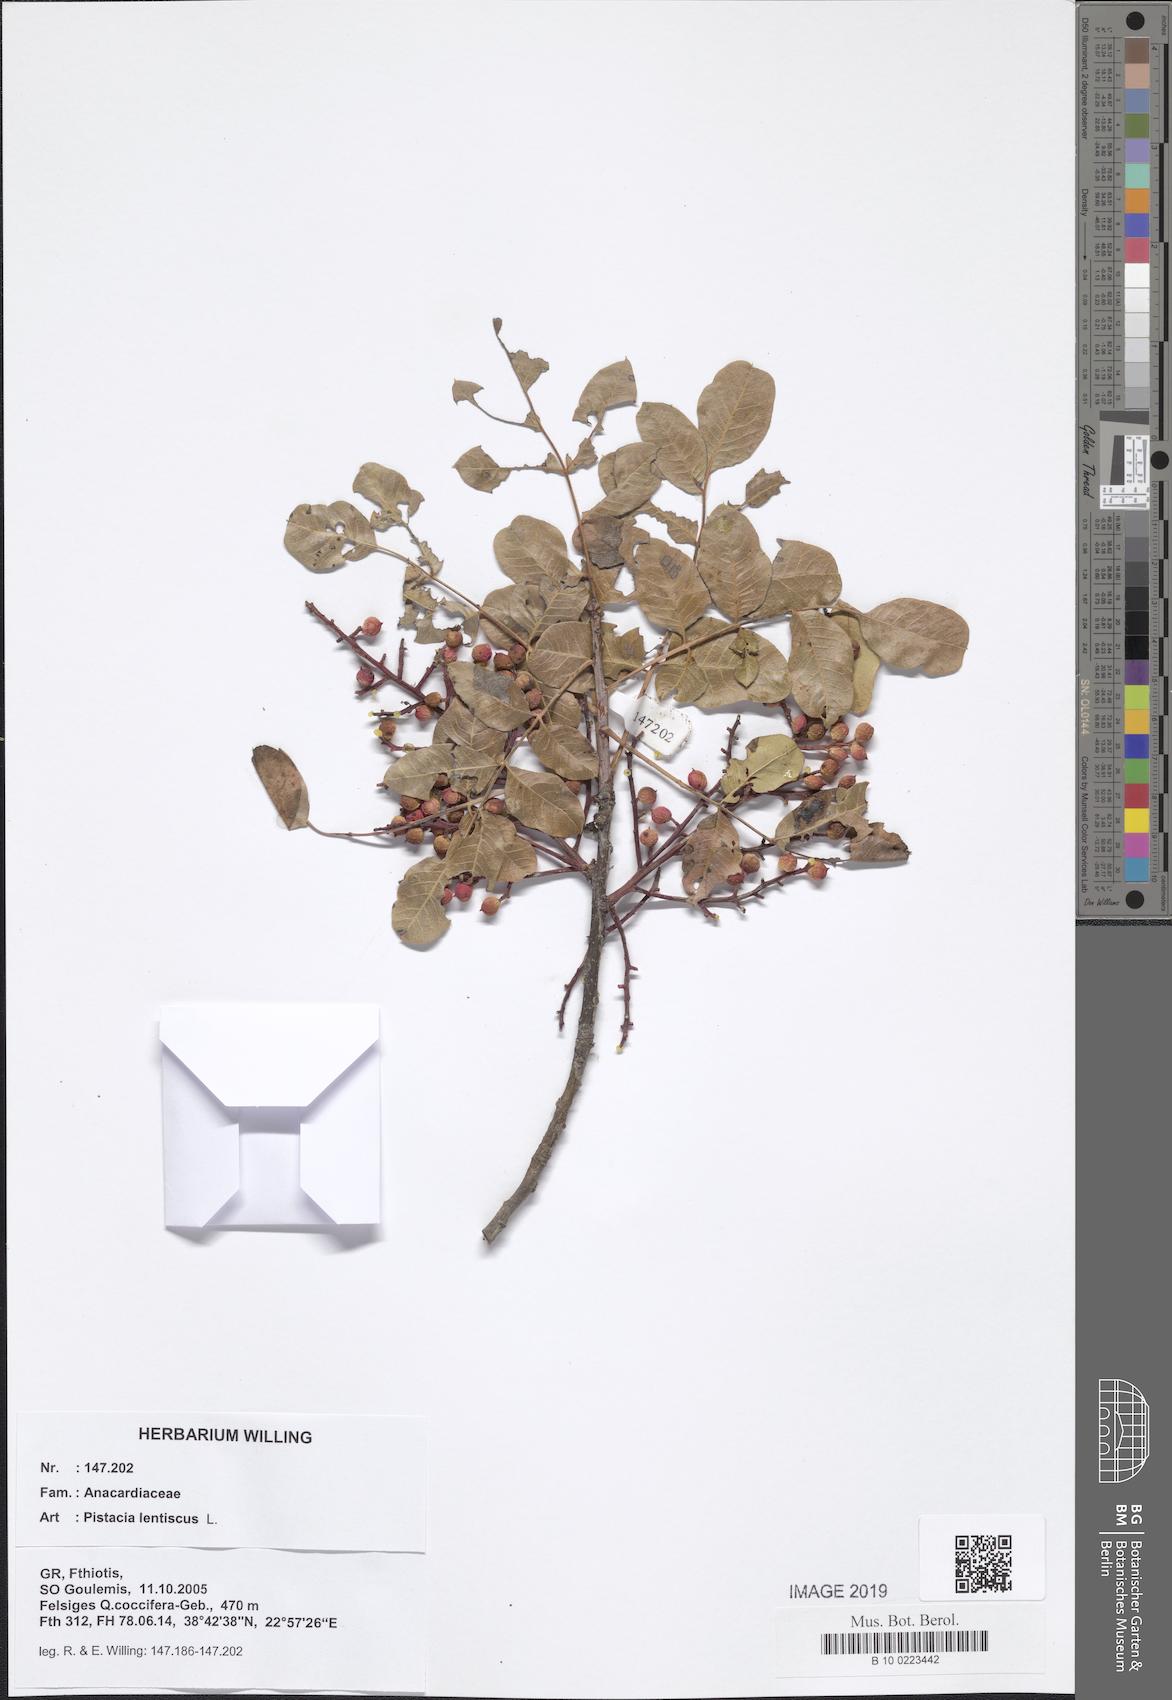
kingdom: Plantae
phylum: Tracheophyta
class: Magnoliopsida
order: Sapindales
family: Anacardiaceae
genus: Pistacia
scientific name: Pistacia lentiscus
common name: Lentisk
